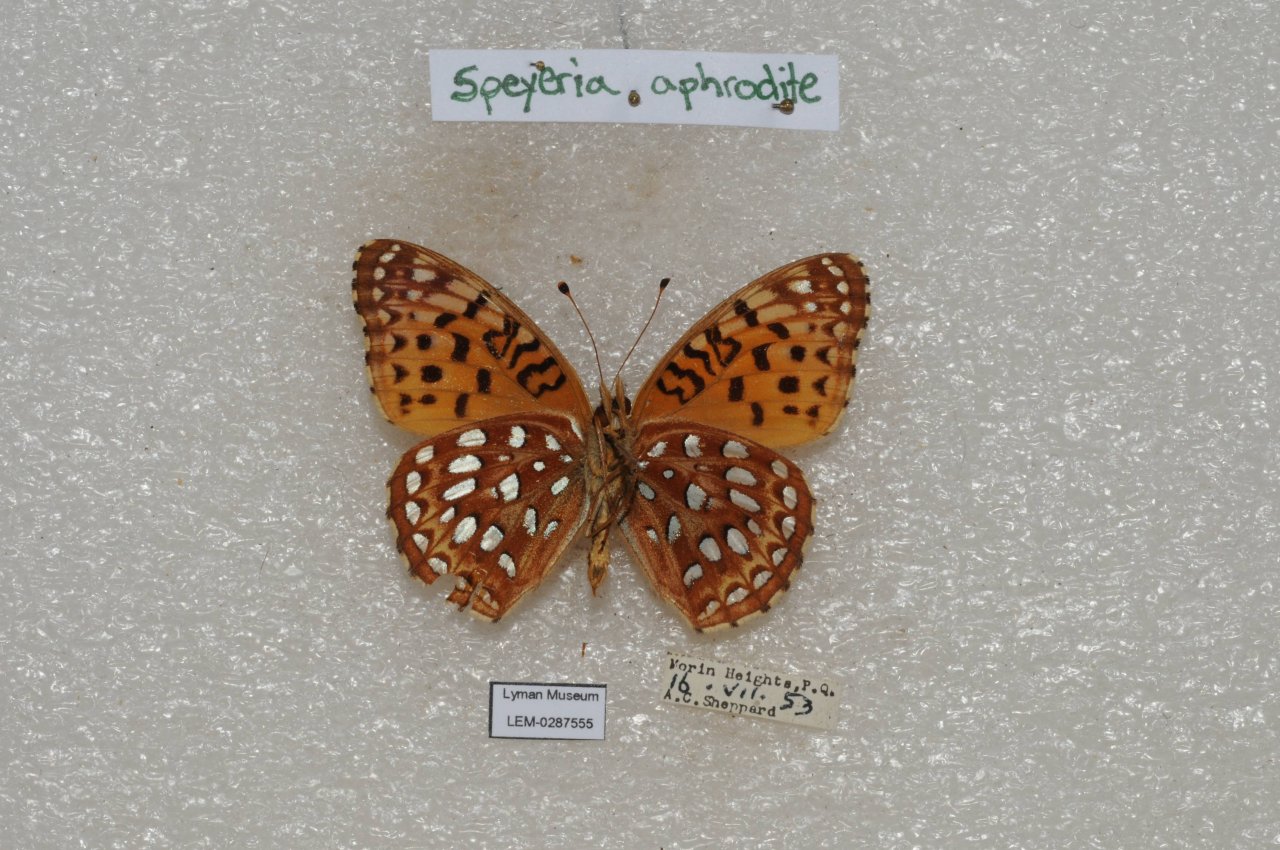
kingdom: Animalia
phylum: Arthropoda
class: Insecta
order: Lepidoptera
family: Nymphalidae
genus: Speyeria
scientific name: Speyeria aphrodite
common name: Aphrodite Fritillary
